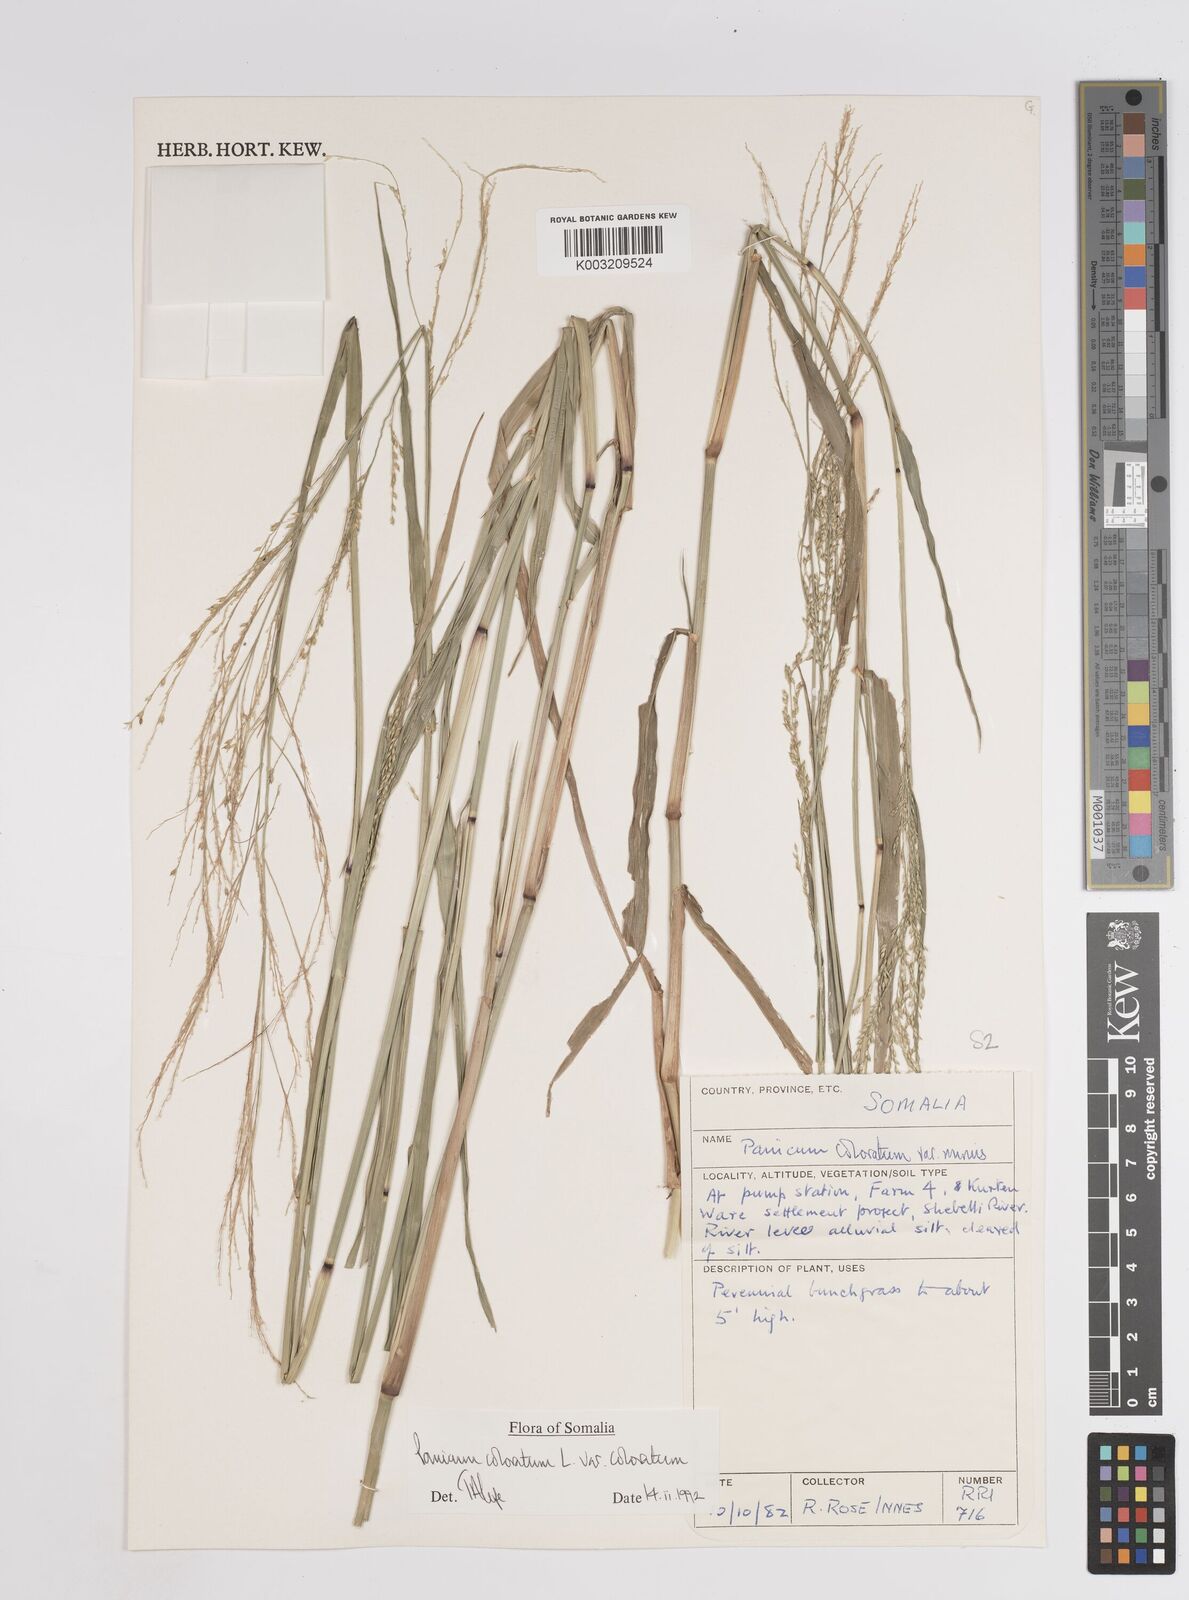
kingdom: Plantae
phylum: Tracheophyta
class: Liliopsida
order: Poales
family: Poaceae
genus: Panicum
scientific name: Panicum coloratum
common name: Kleingrass
